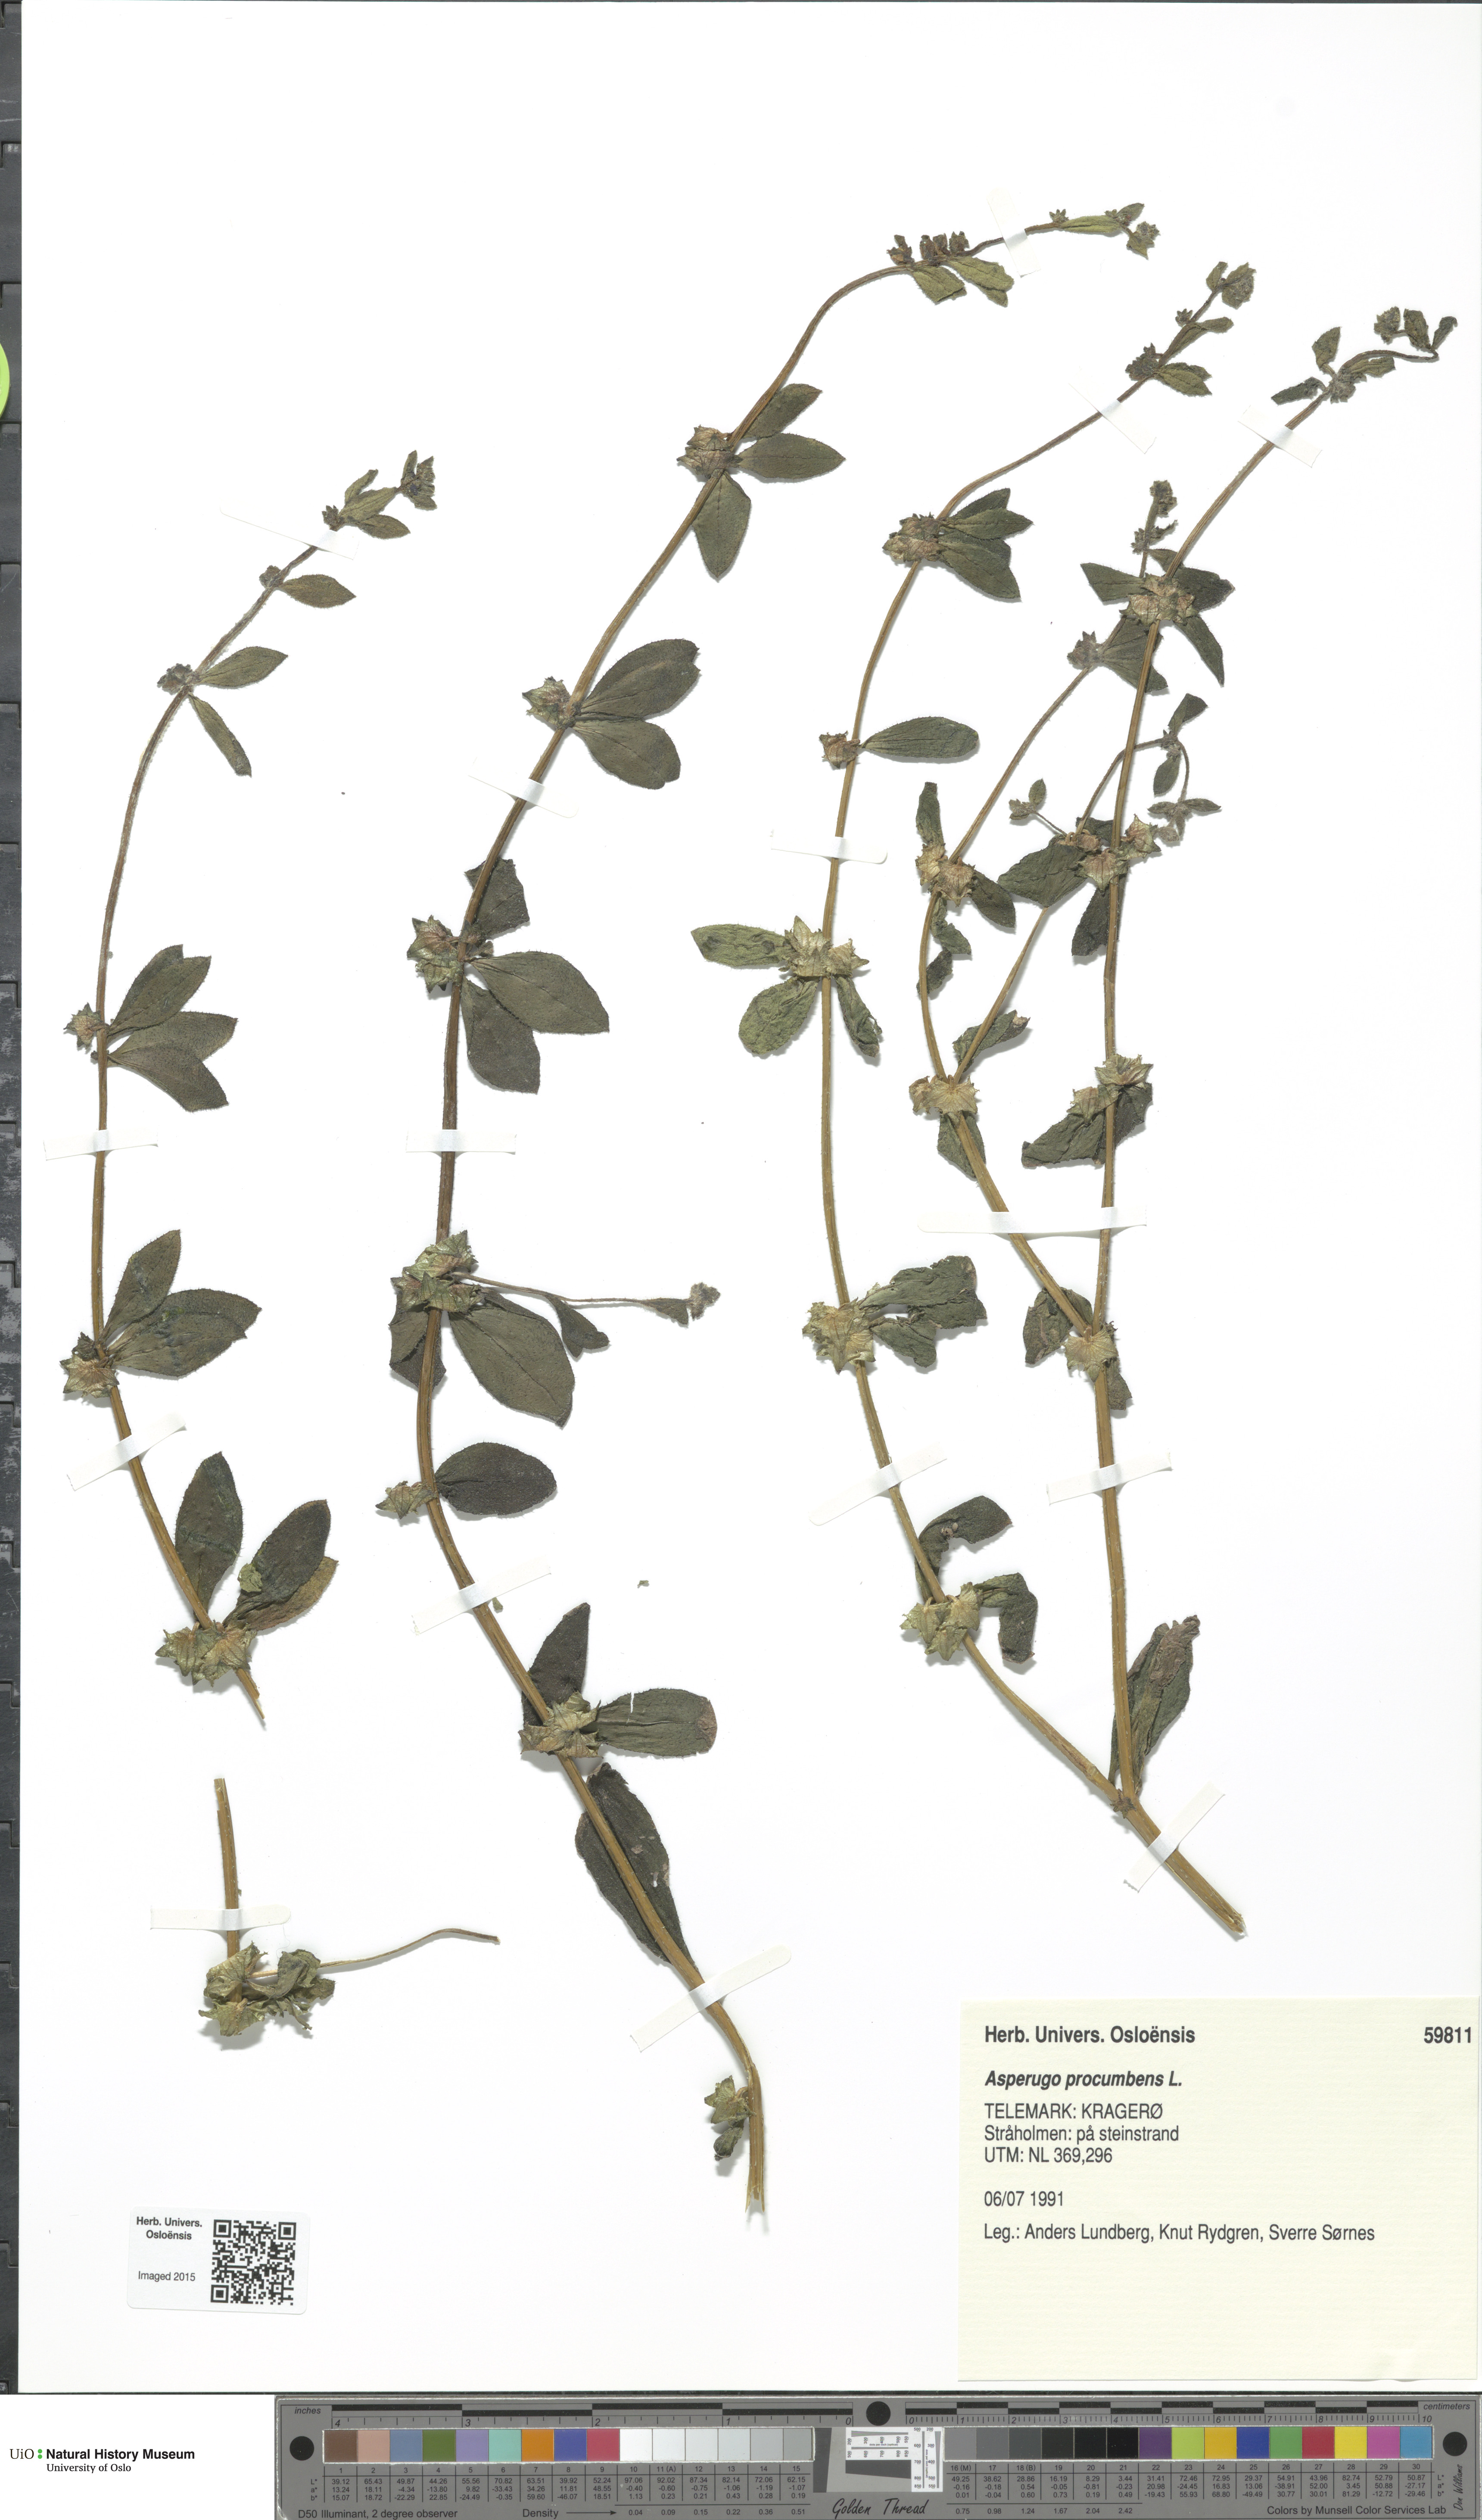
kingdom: Plantae
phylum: Tracheophyta
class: Magnoliopsida
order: Boraginales
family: Boraginaceae
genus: Asperugo
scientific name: Asperugo procumbens
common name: Madwort
